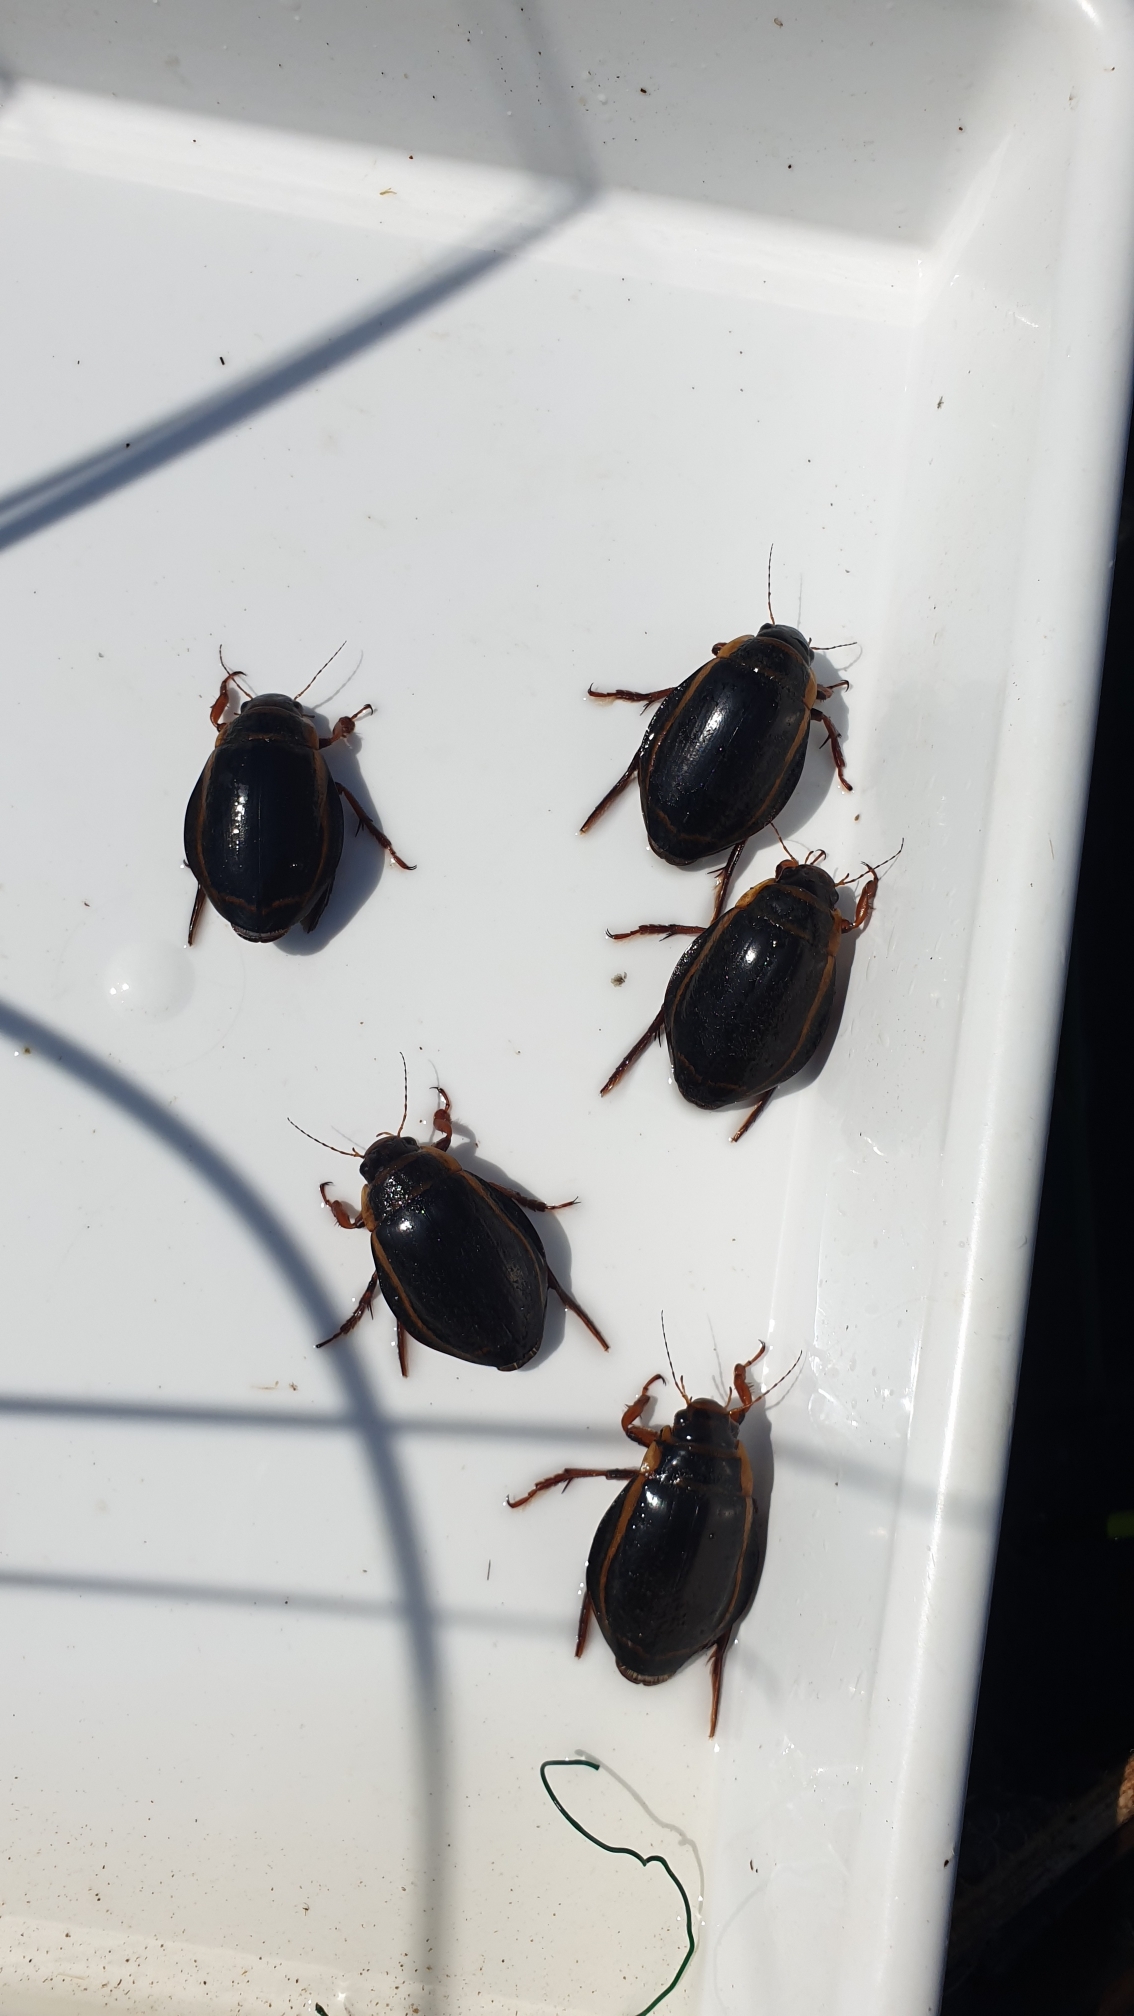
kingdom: Animalia
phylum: Arthropoda
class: Insecta
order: Coleoptera
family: Dytiscidae
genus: Dytiscus
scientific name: Dytiscus latissimus
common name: Bred vandkalv
